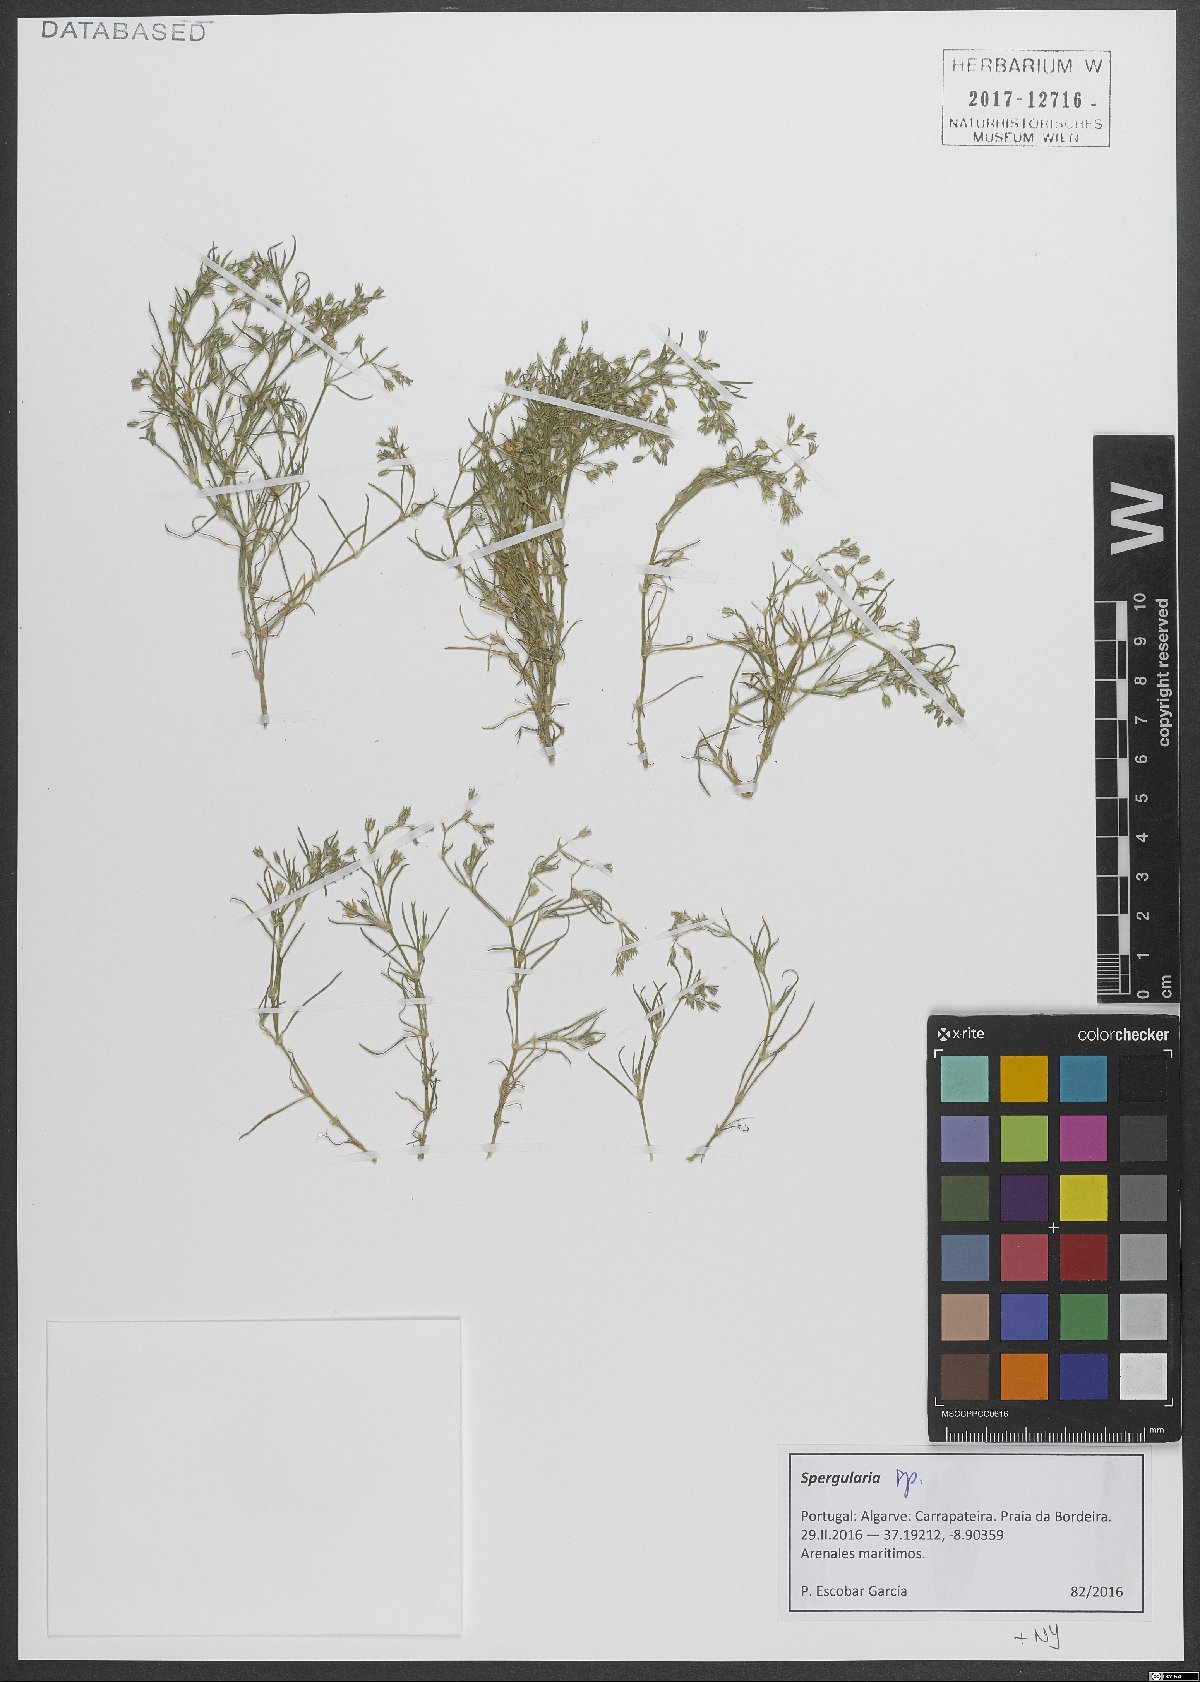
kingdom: Plantae
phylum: Tracheophyta
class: Magnoliopsida
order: Caryophyllales
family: Caryophyllaceae
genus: Spergularia
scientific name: Spergularia
